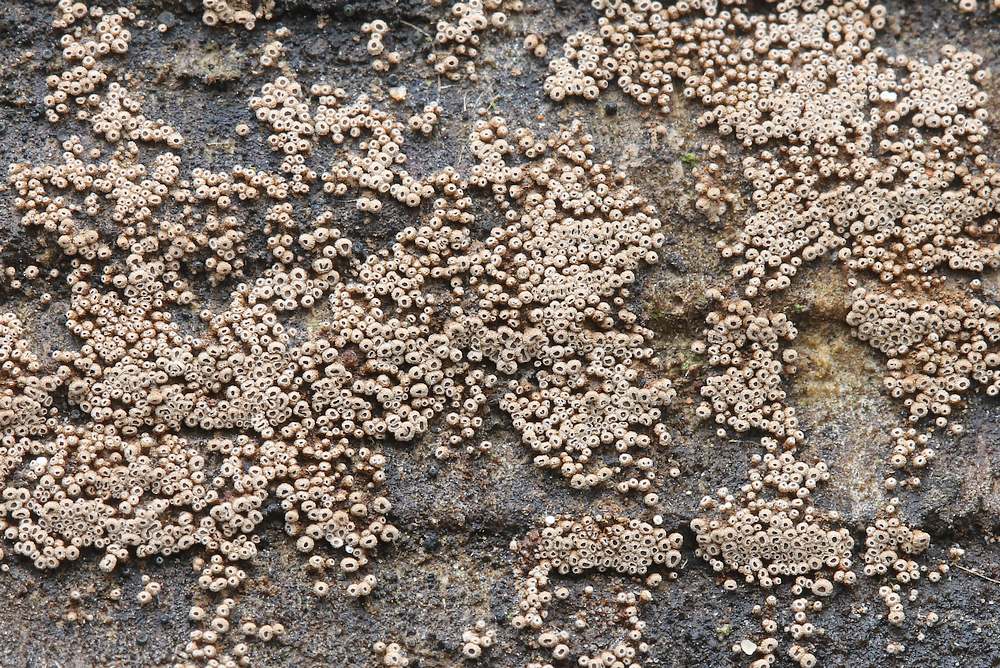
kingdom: Fungi
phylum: Basidiomycota
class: Agaricomycetes
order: Agaricales
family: Niaceae
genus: Merismodes
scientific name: Merismodes anomala
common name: almindelig læderskål
